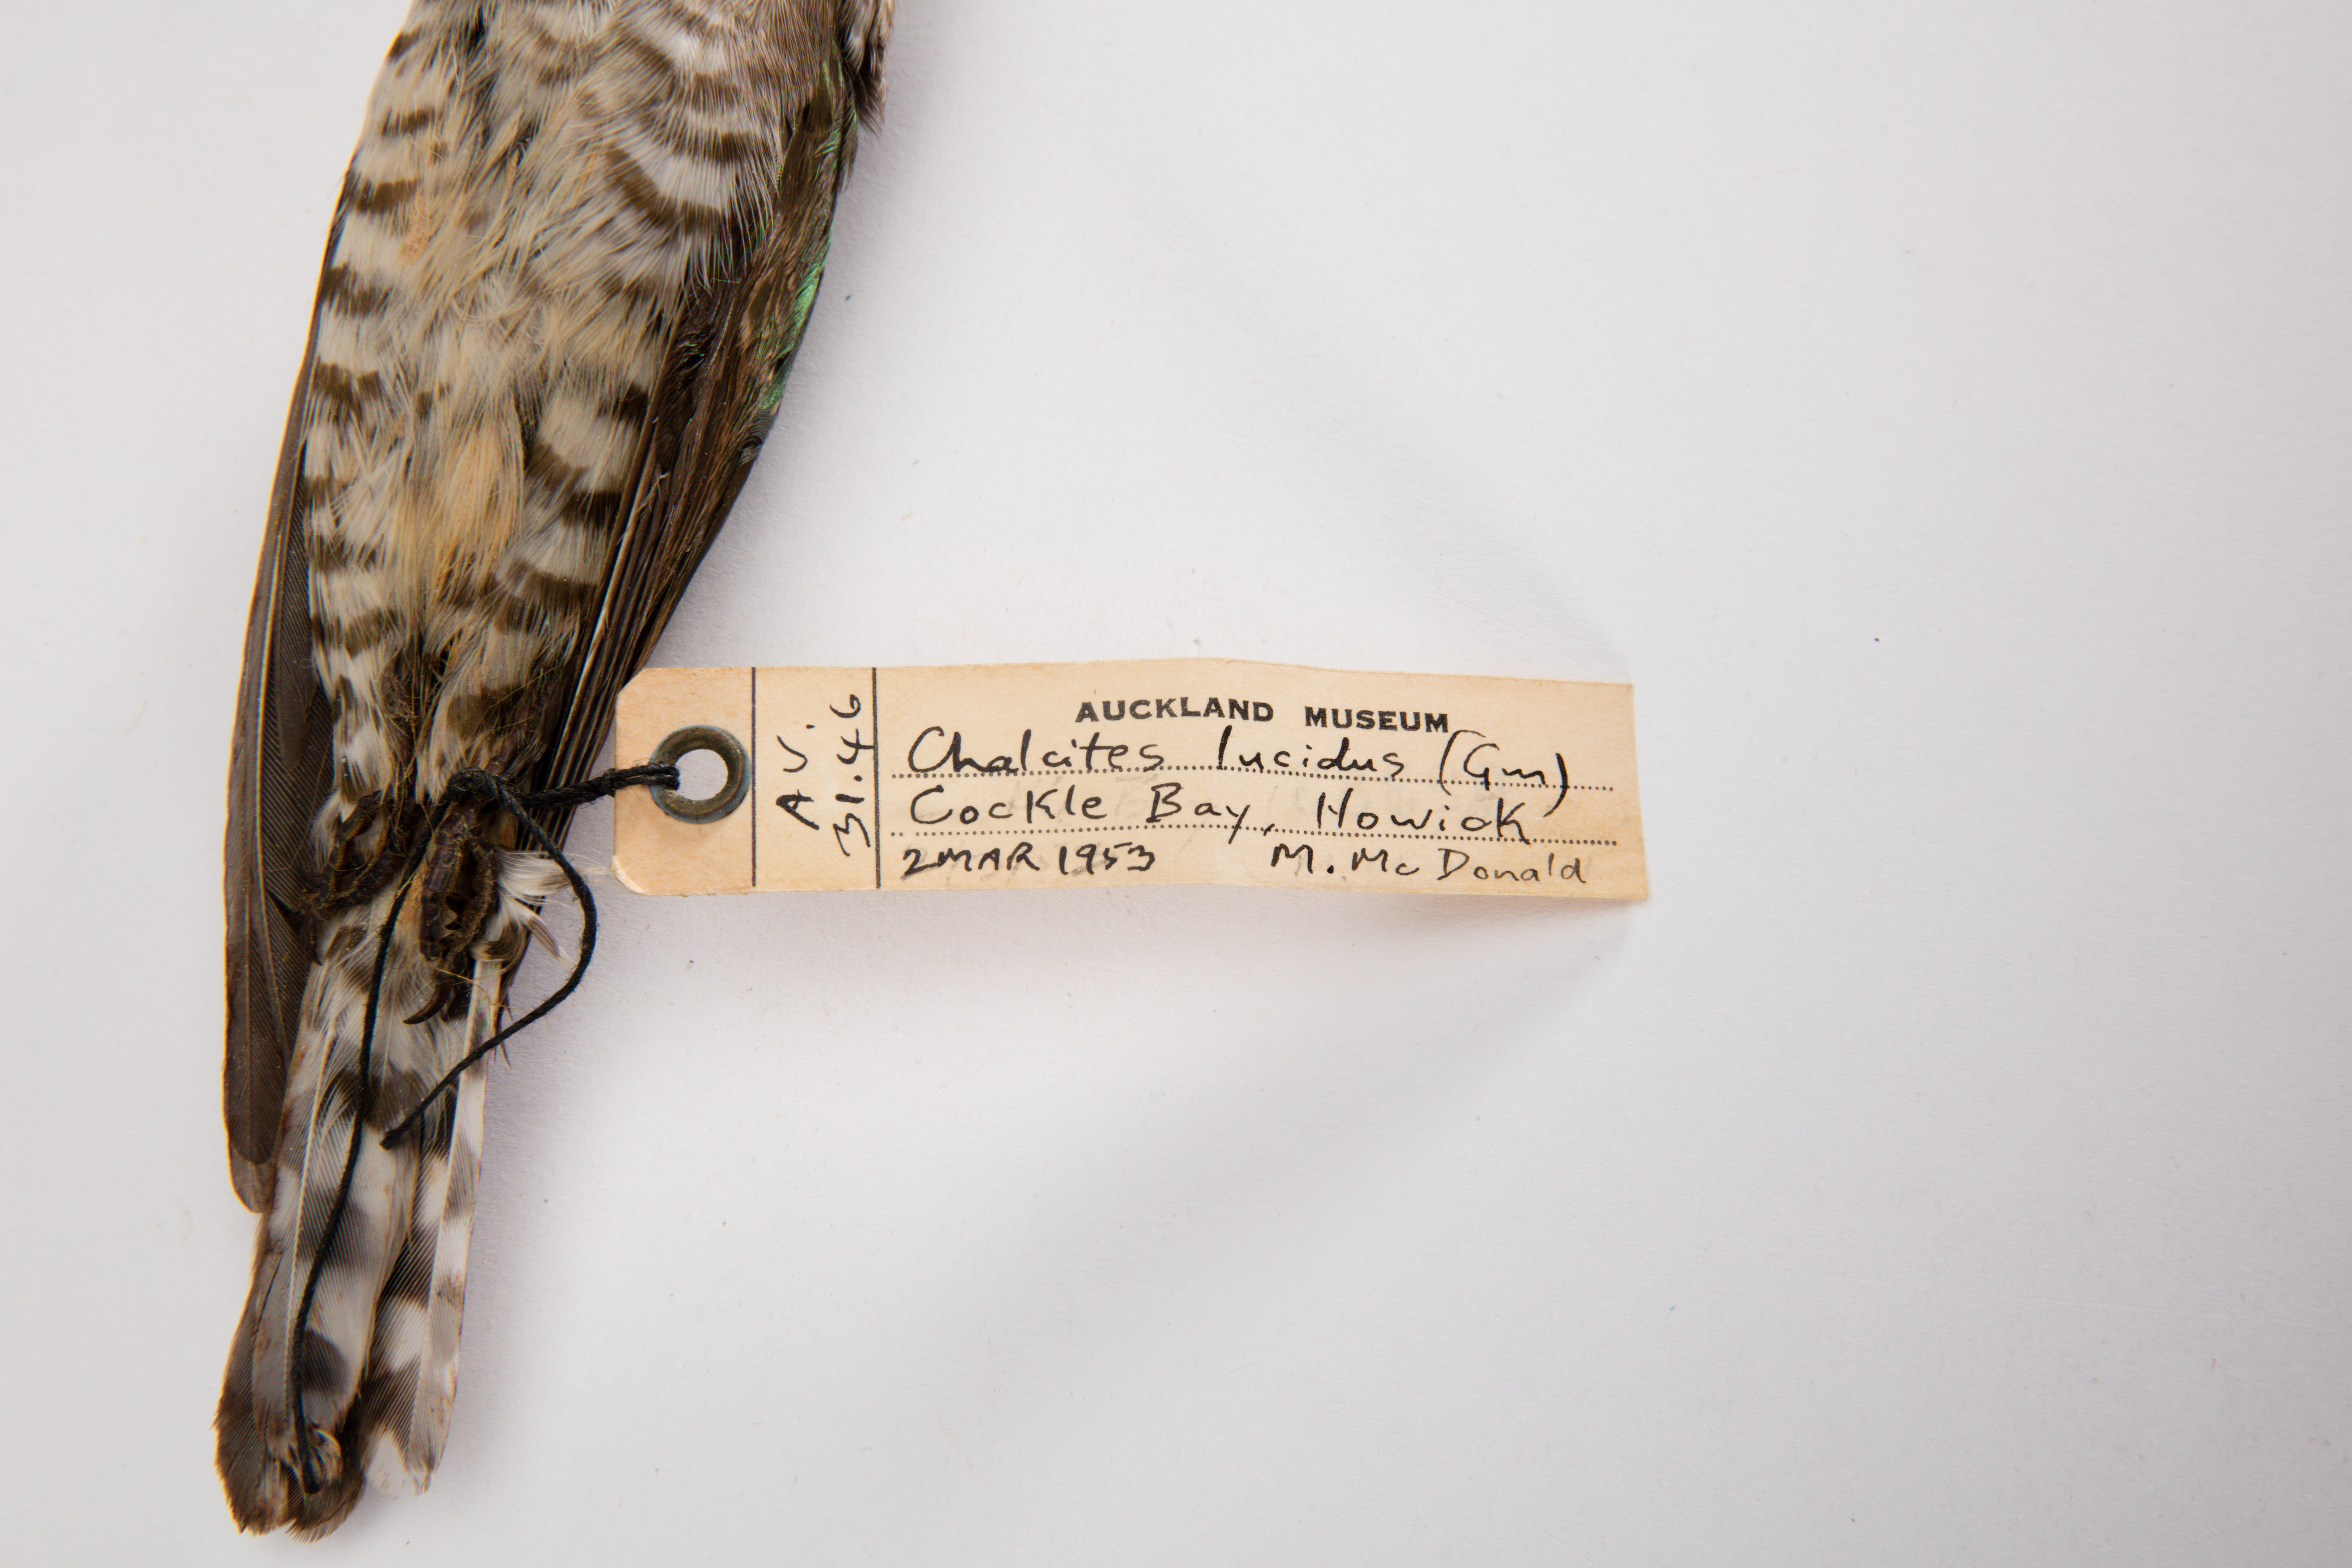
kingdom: Animalia
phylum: Chordata
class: Aves
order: Cuculiformes
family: Cuculidae
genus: Chrysococcyx
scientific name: Chrysococcyx lucidus
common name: Shining bronze cuckoo
